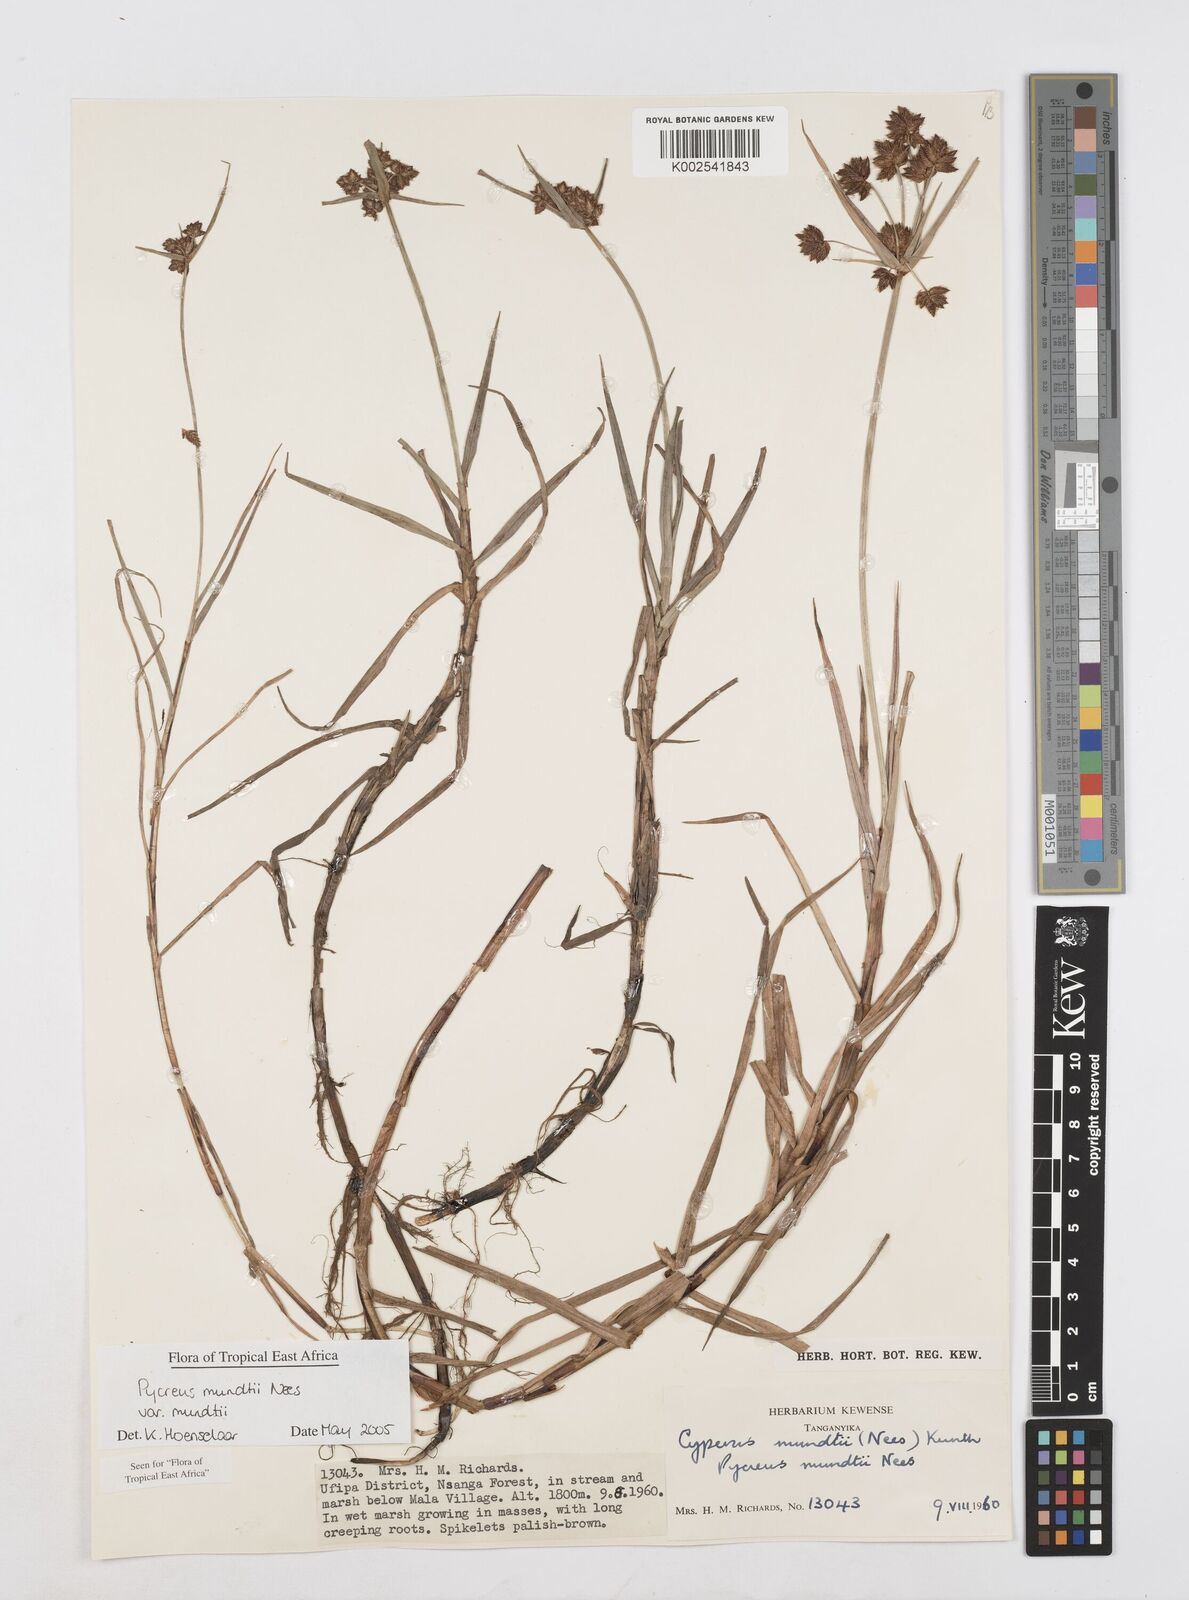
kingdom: Plantae
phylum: Tracheophyta
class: Liliopsida
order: Poales
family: Cyperaceae
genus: Cyperus
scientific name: Cyperus mundii
